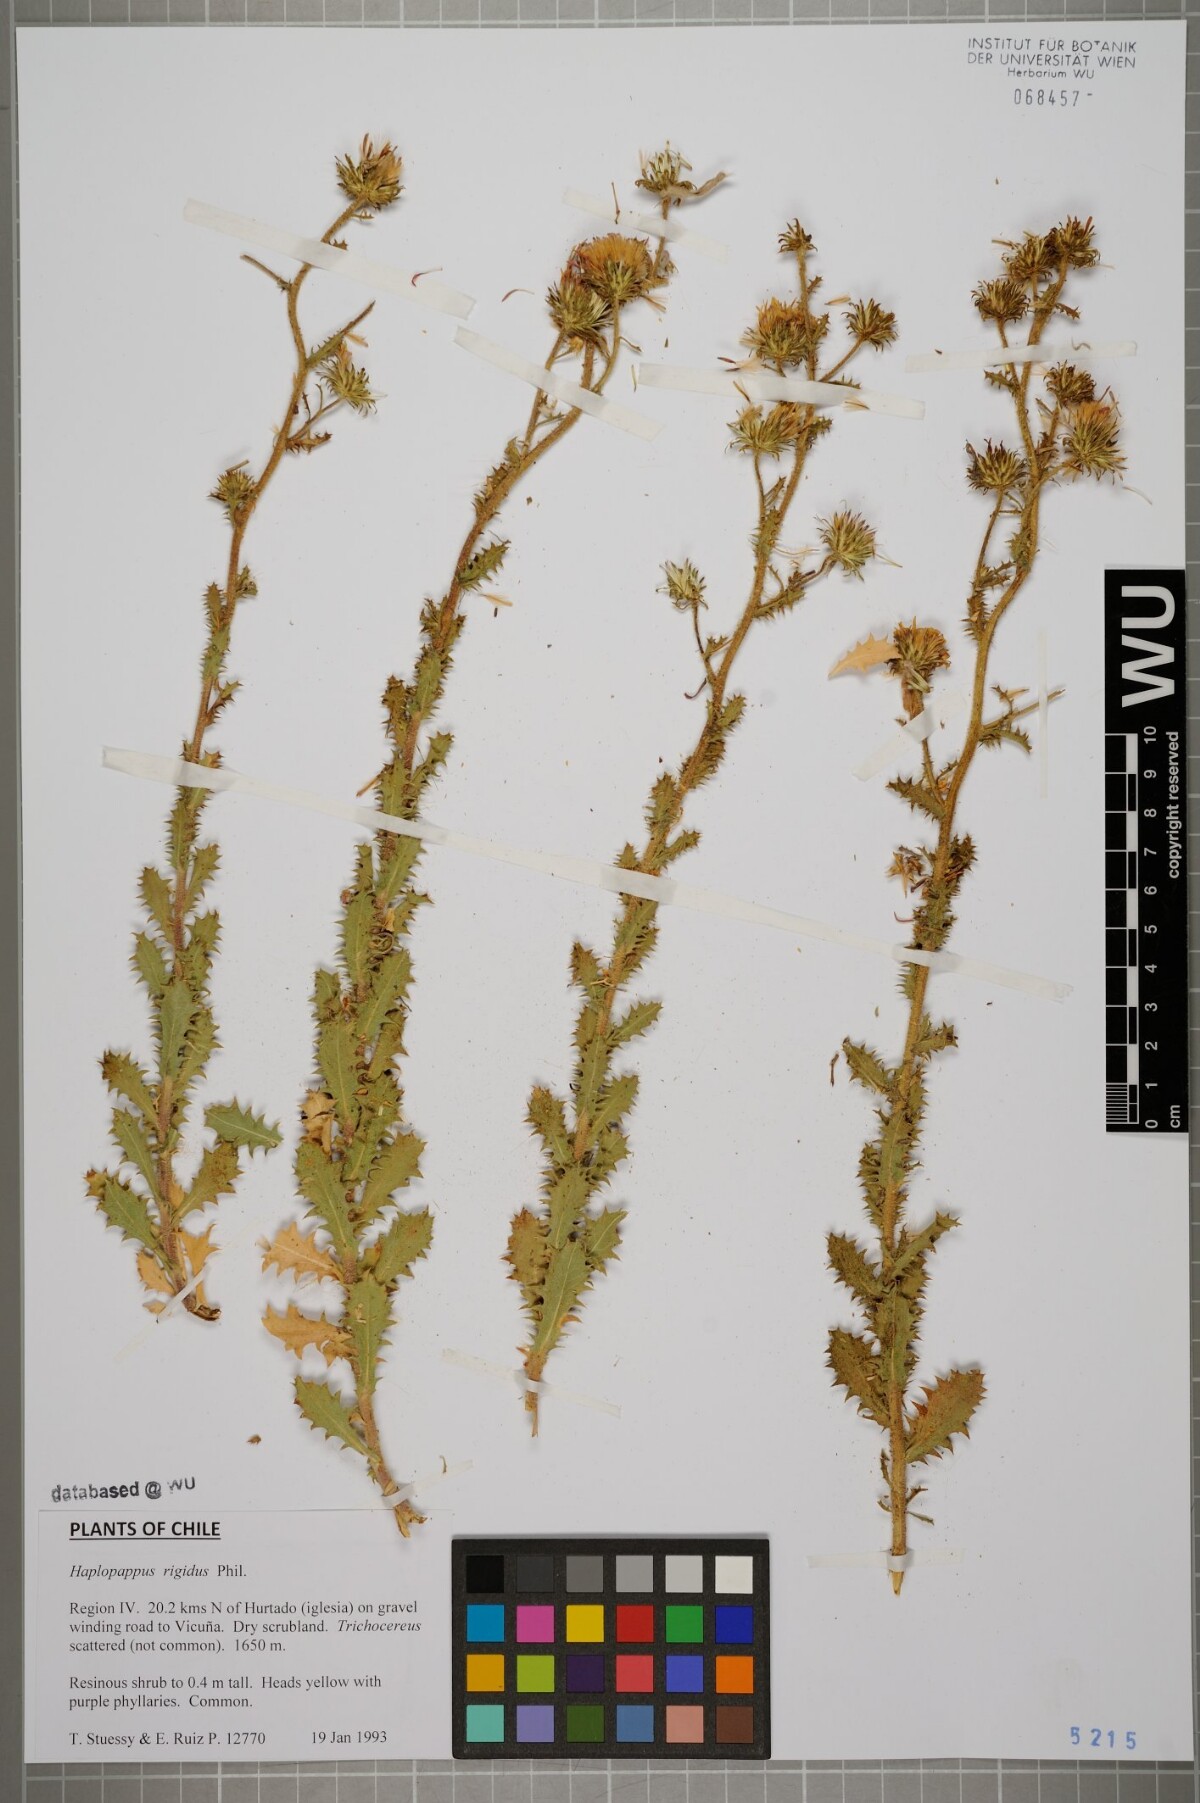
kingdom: Plantae
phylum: Tracheophyta
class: Magnoliopsida
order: Asterales
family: Asteraceae
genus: Haplopappus
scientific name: Haplopappus rigidus
